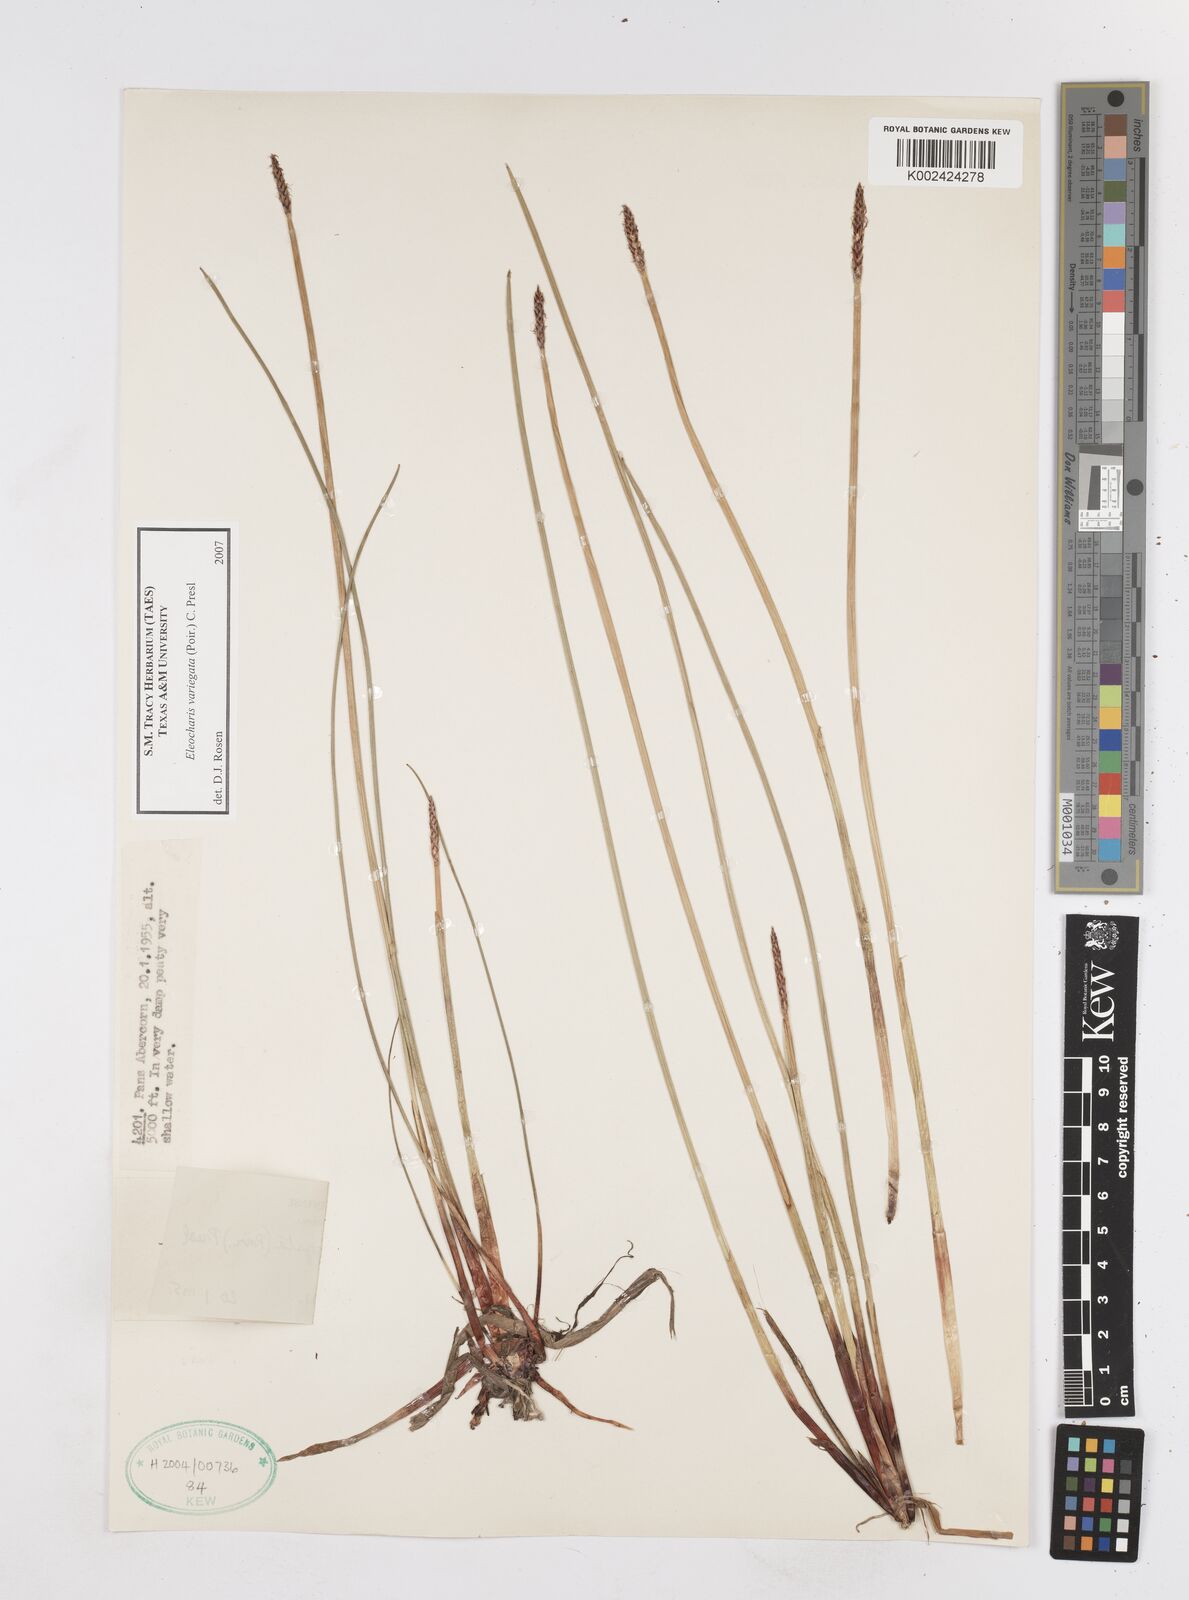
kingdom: Plantae
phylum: Tracheophyta
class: Liliopsida
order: Poales
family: Cyperaceae
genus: Eleocharis
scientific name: Eleocharis variegata
